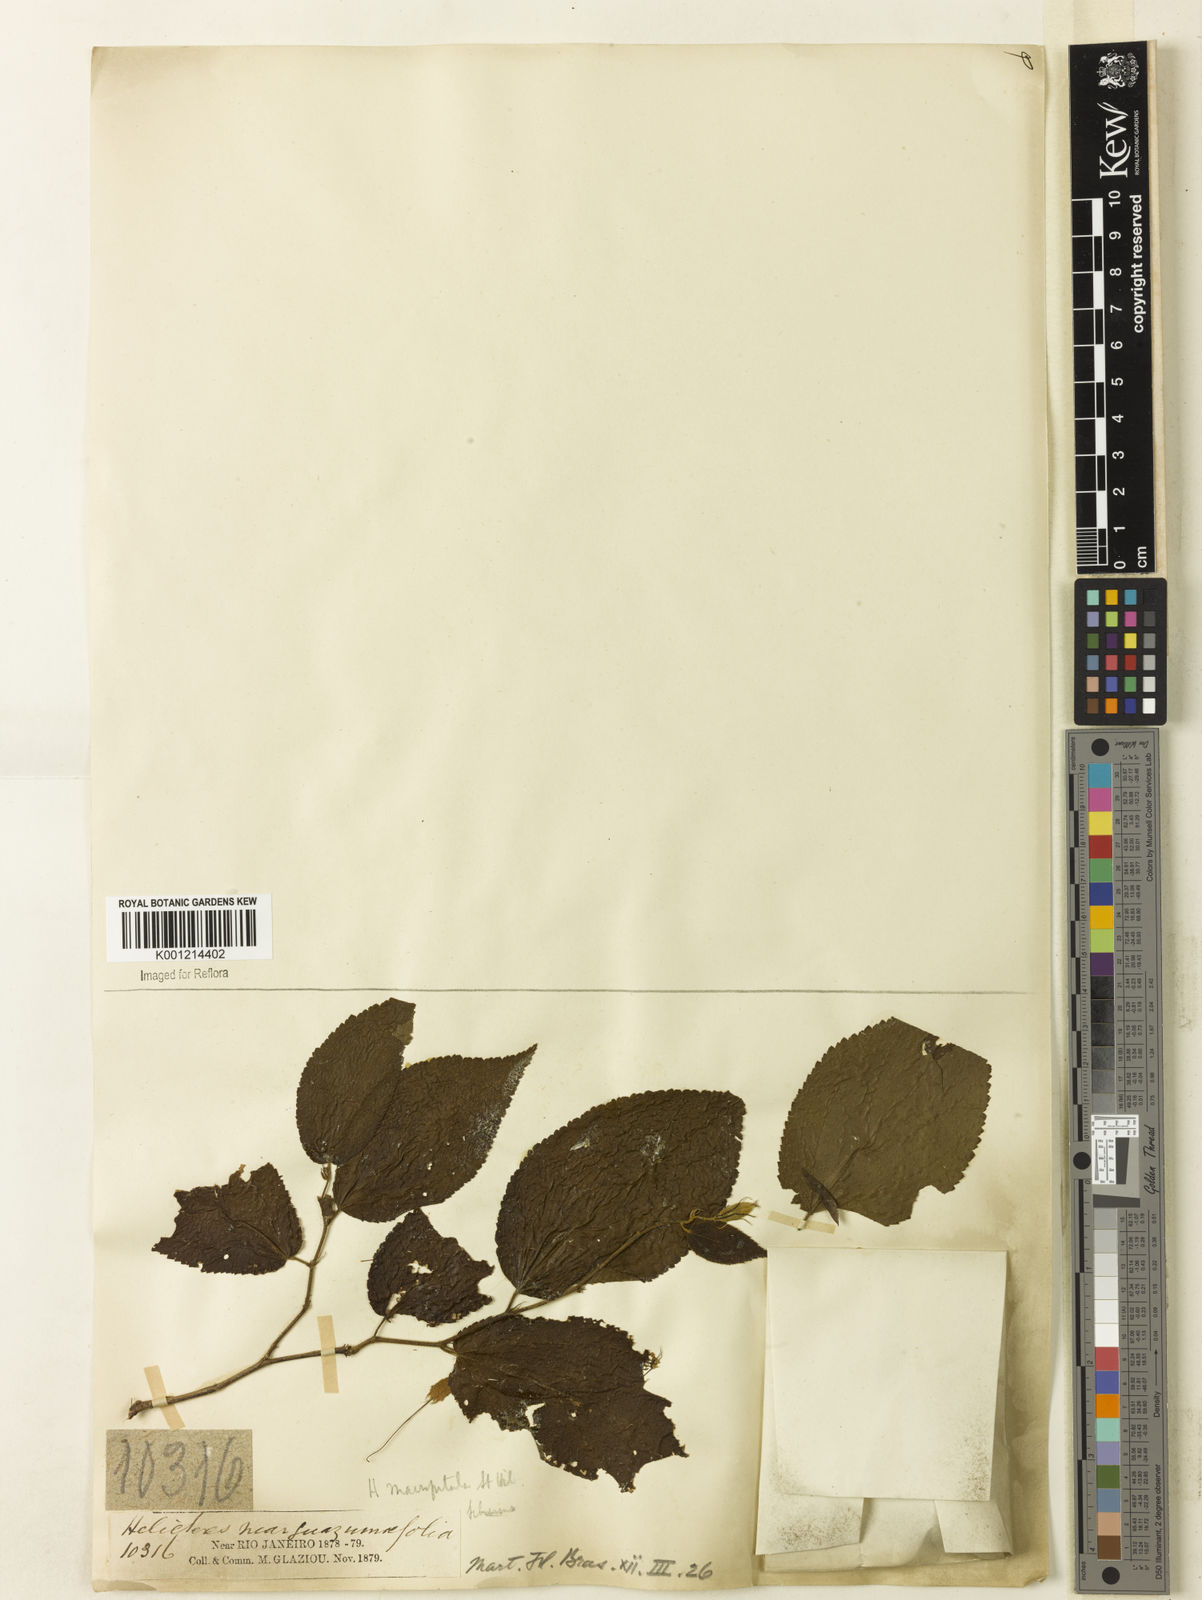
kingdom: Plantae
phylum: Tracheophyta
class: Magnoliopsida
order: Malvales
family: Malvaceae
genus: Helicteres
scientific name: Helicteres
